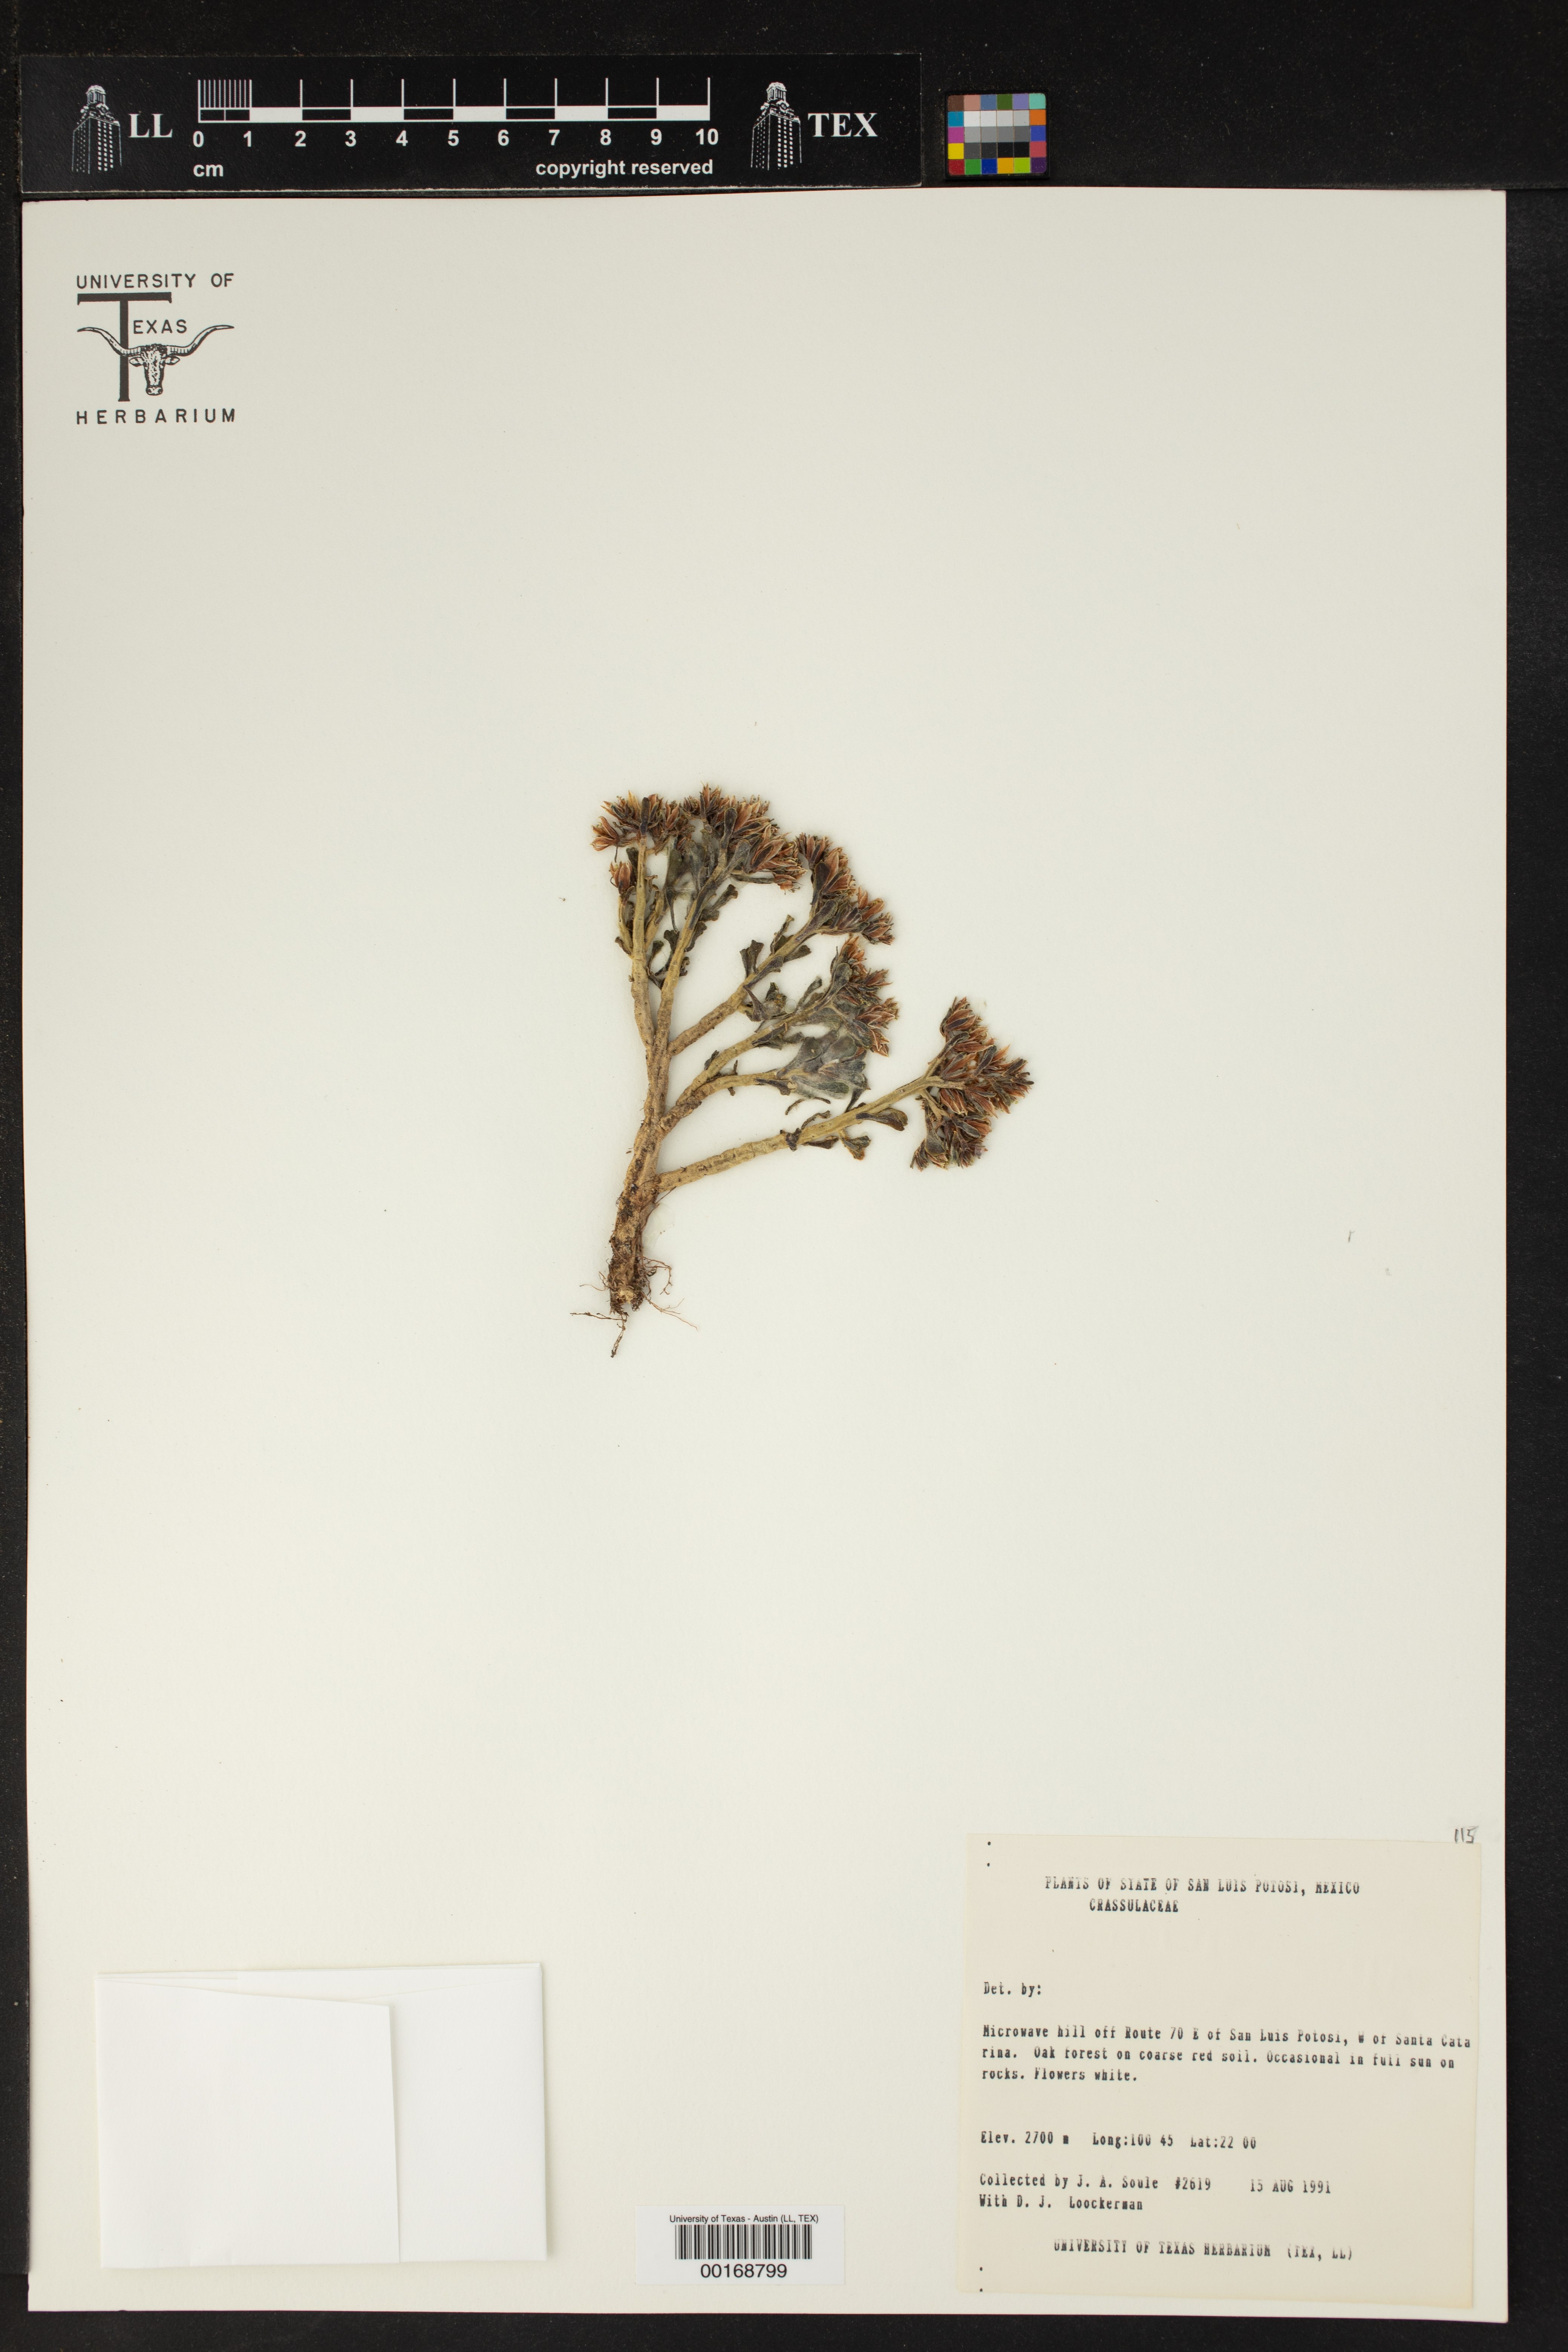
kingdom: Plantae
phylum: Tracheophyta
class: Magnoliopsida
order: Saxifragales
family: Crassulaceae
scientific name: Crassulaceae
